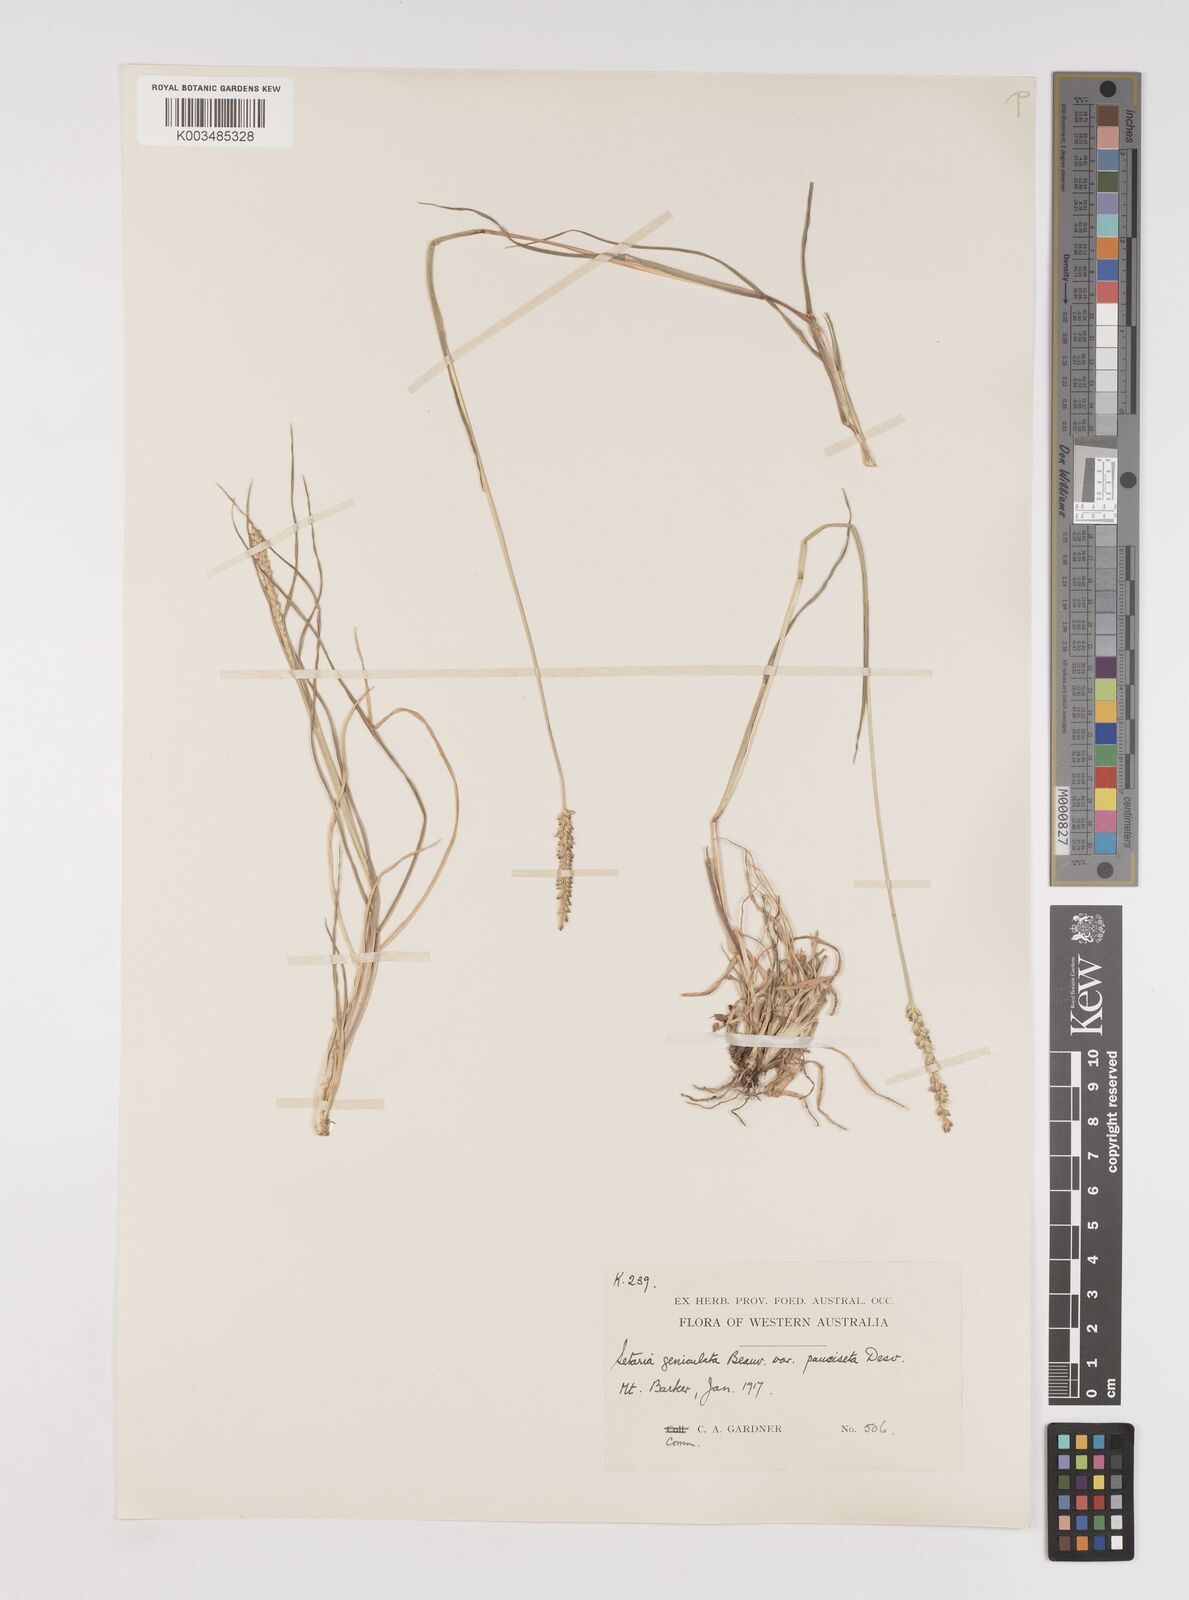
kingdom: Plantae
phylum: Tracheophyta
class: Liliopsida
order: Poales
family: Poaceae
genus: Setaria
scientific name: Setaria parviflora
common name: Knotroot bristle-grass
